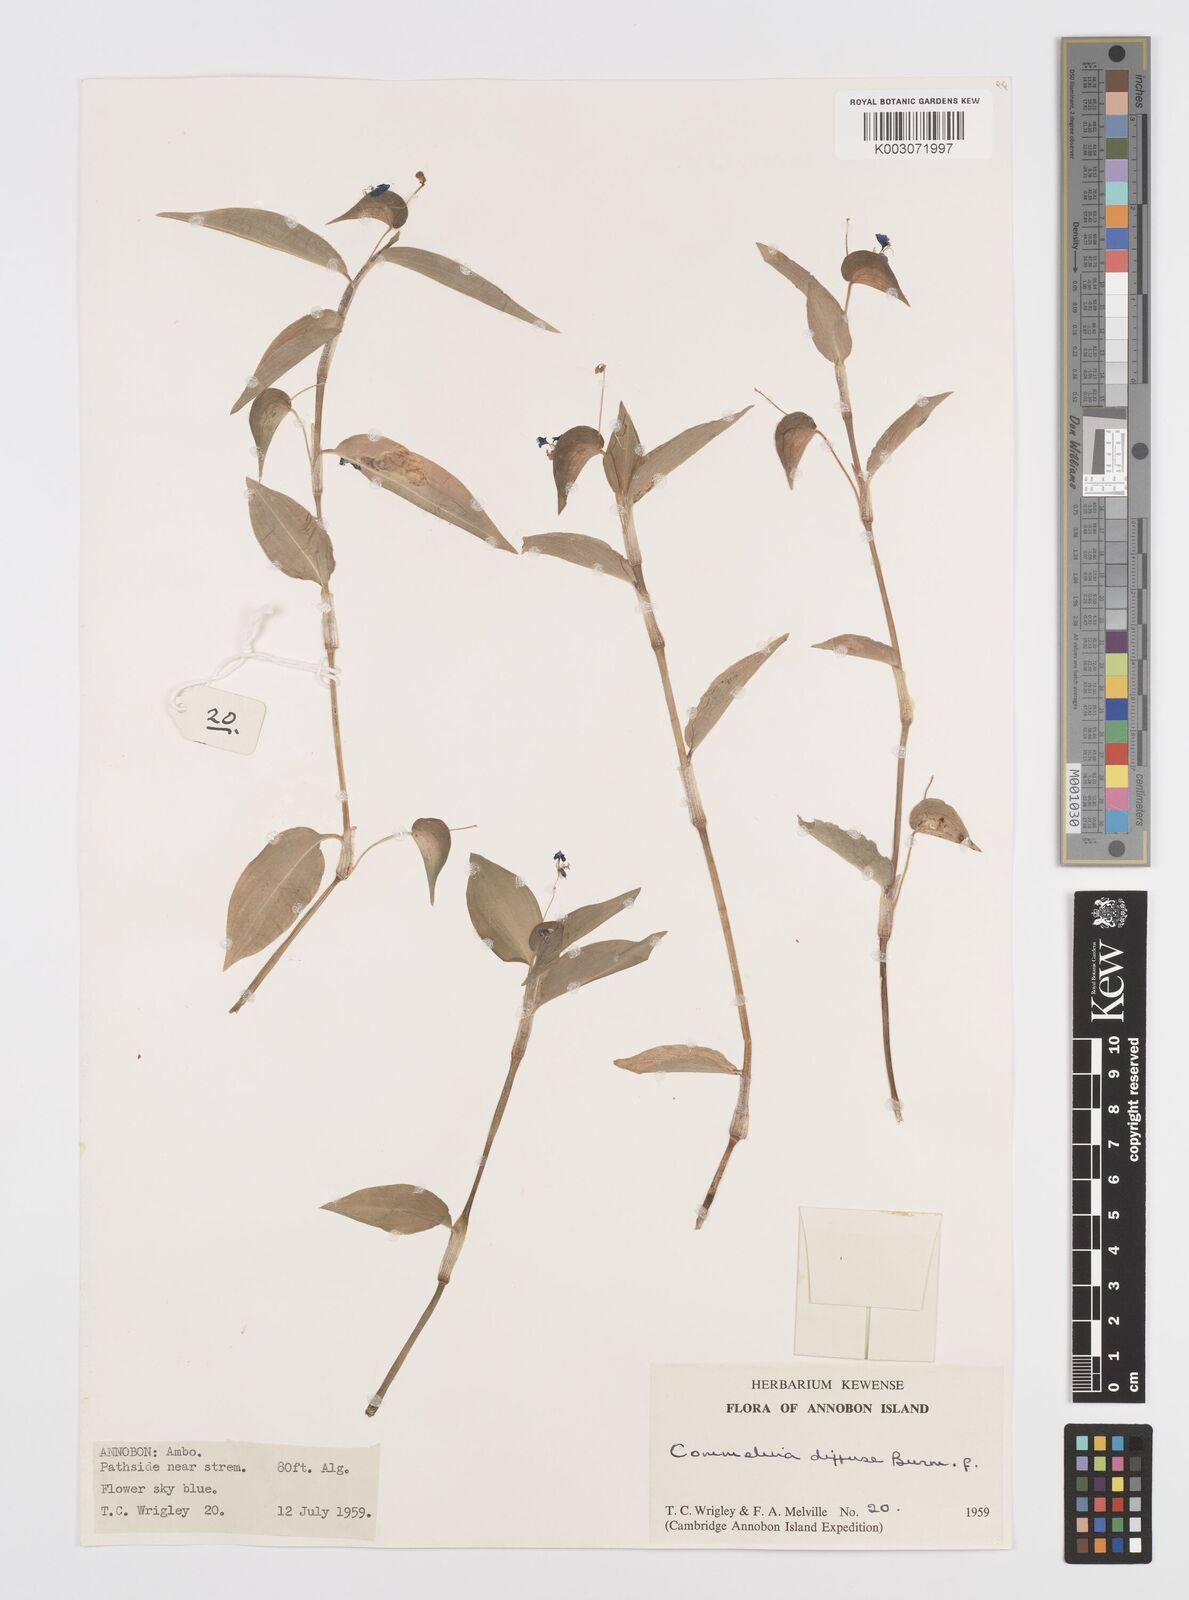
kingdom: Plantae
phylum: Tracheophyta
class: Liliopsida
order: Commelinales
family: Commelinaceae
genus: Commelina
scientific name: Commelina diffusa
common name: Climbing dayflower
